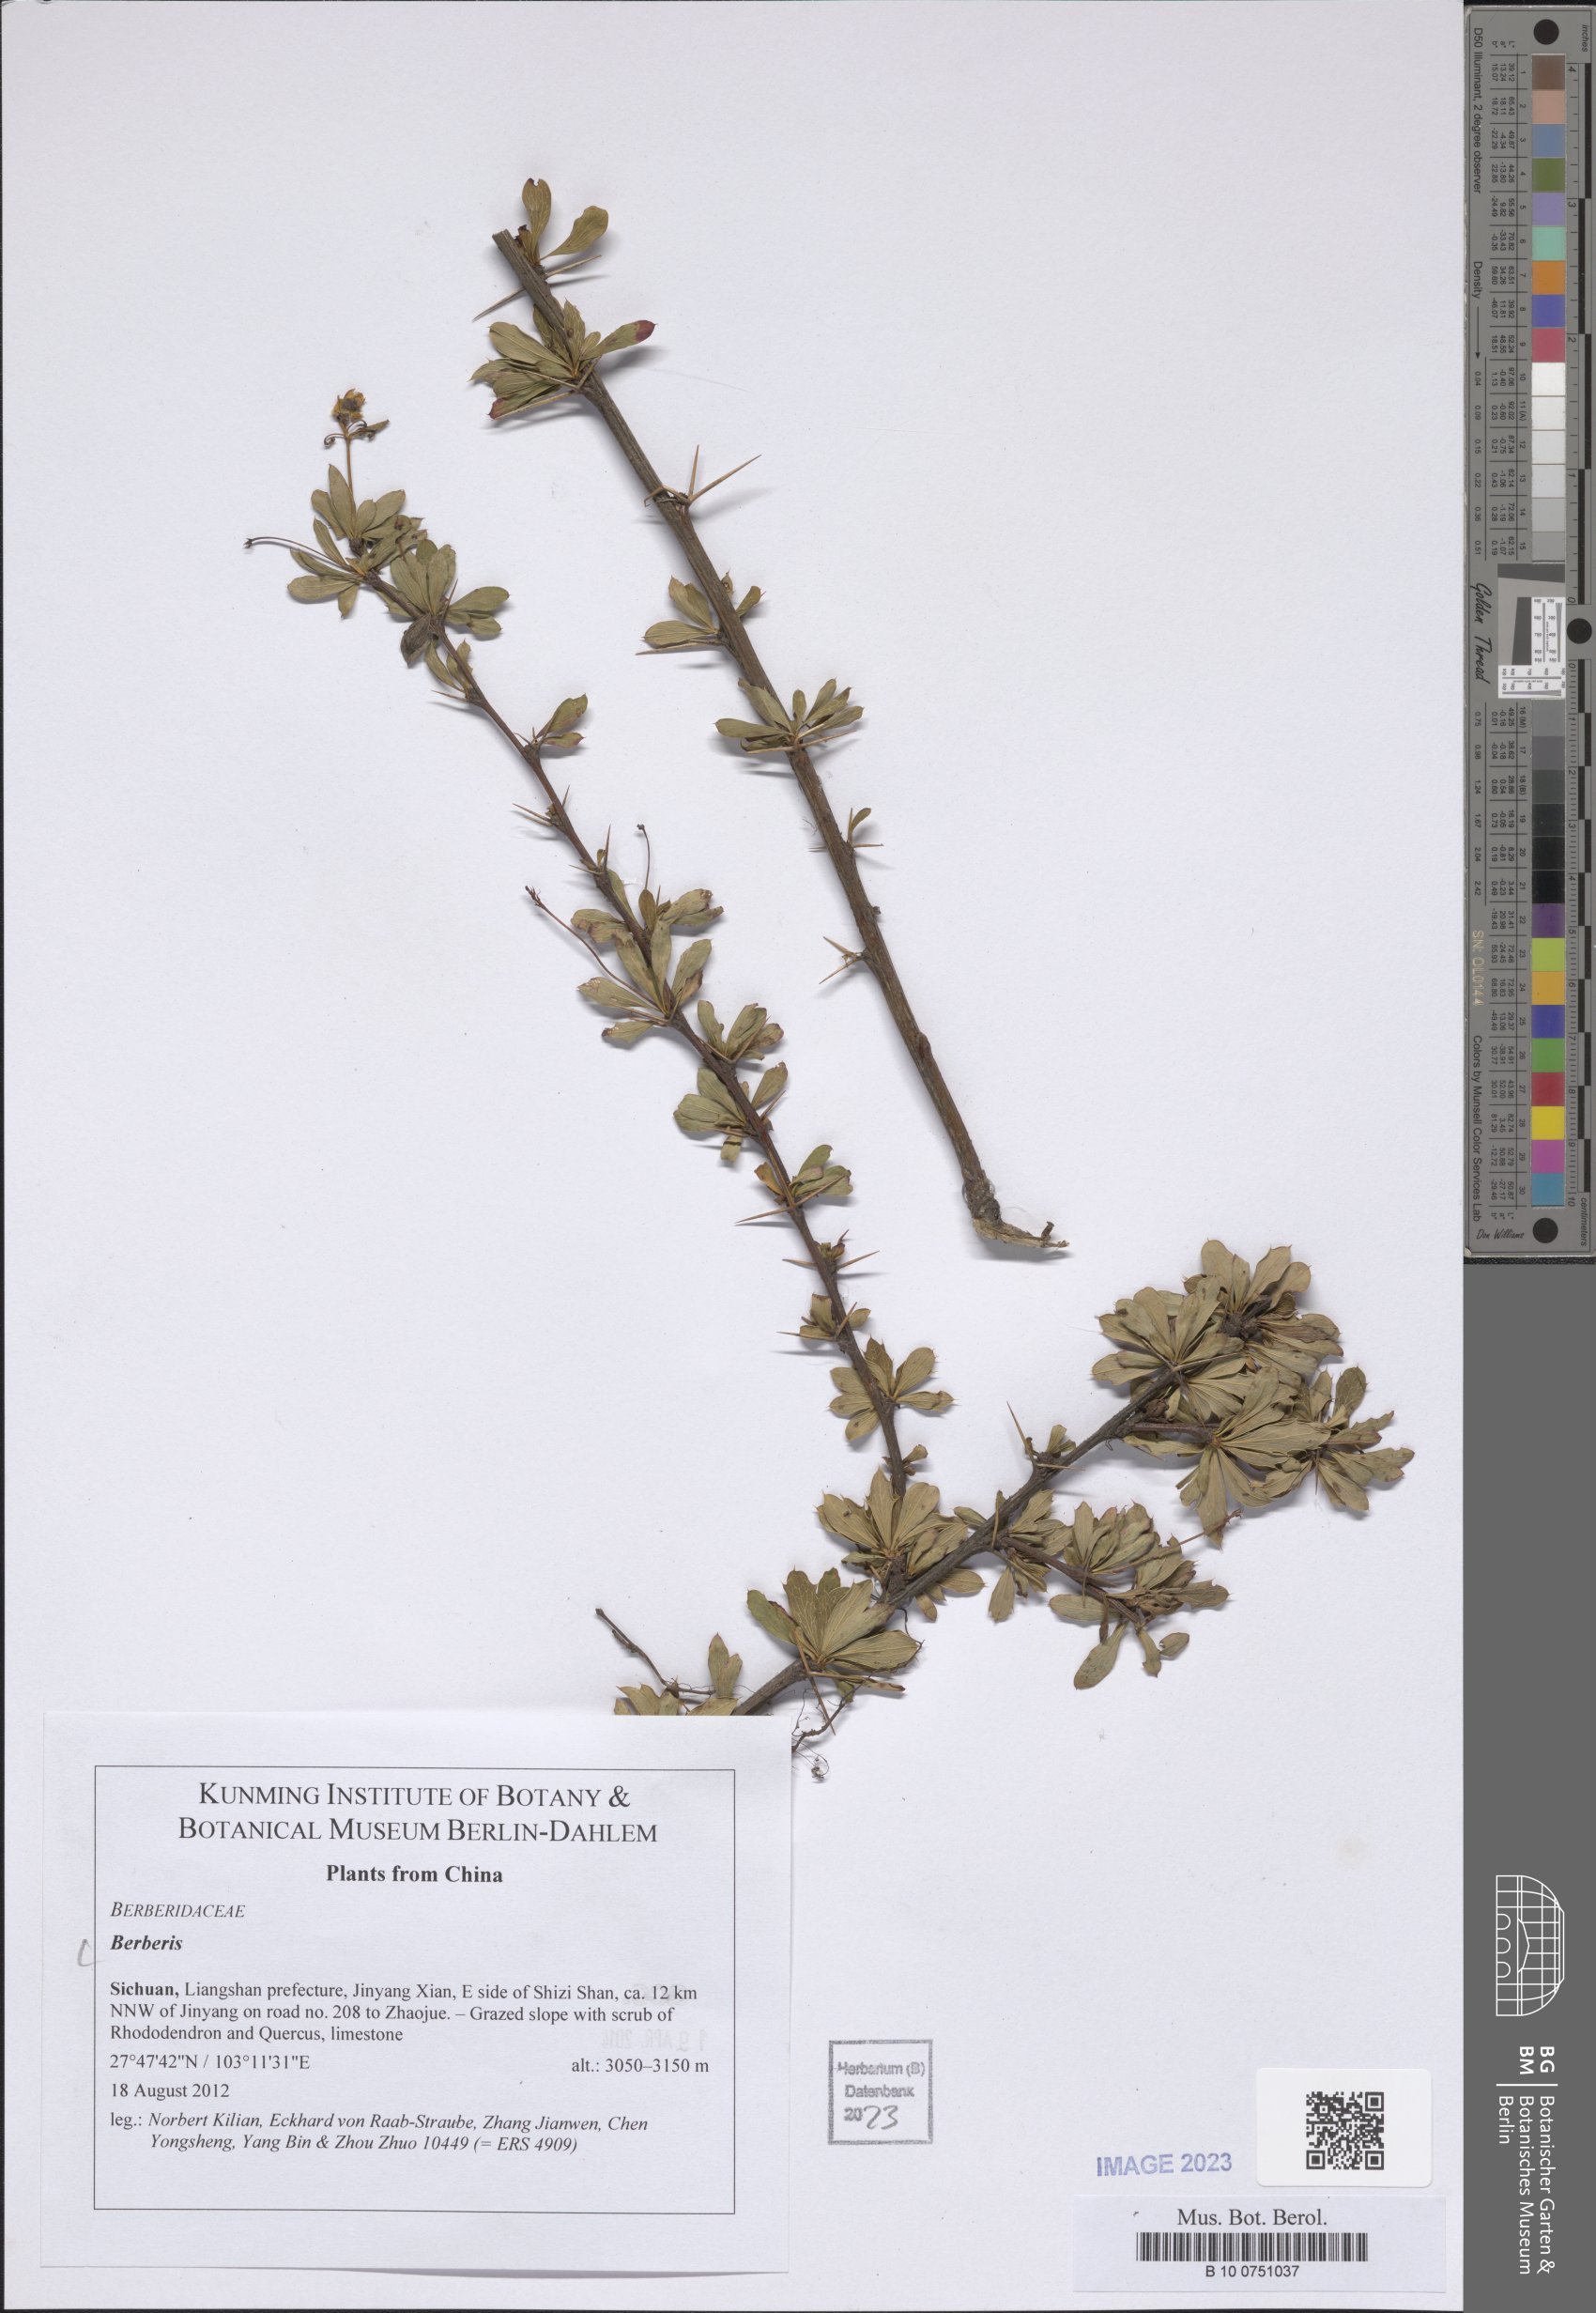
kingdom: Plantae
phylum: Tracheophyta
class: Magnoliopsida
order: Ranunculales
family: Berberidaceae
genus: Berberis
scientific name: Berberis
